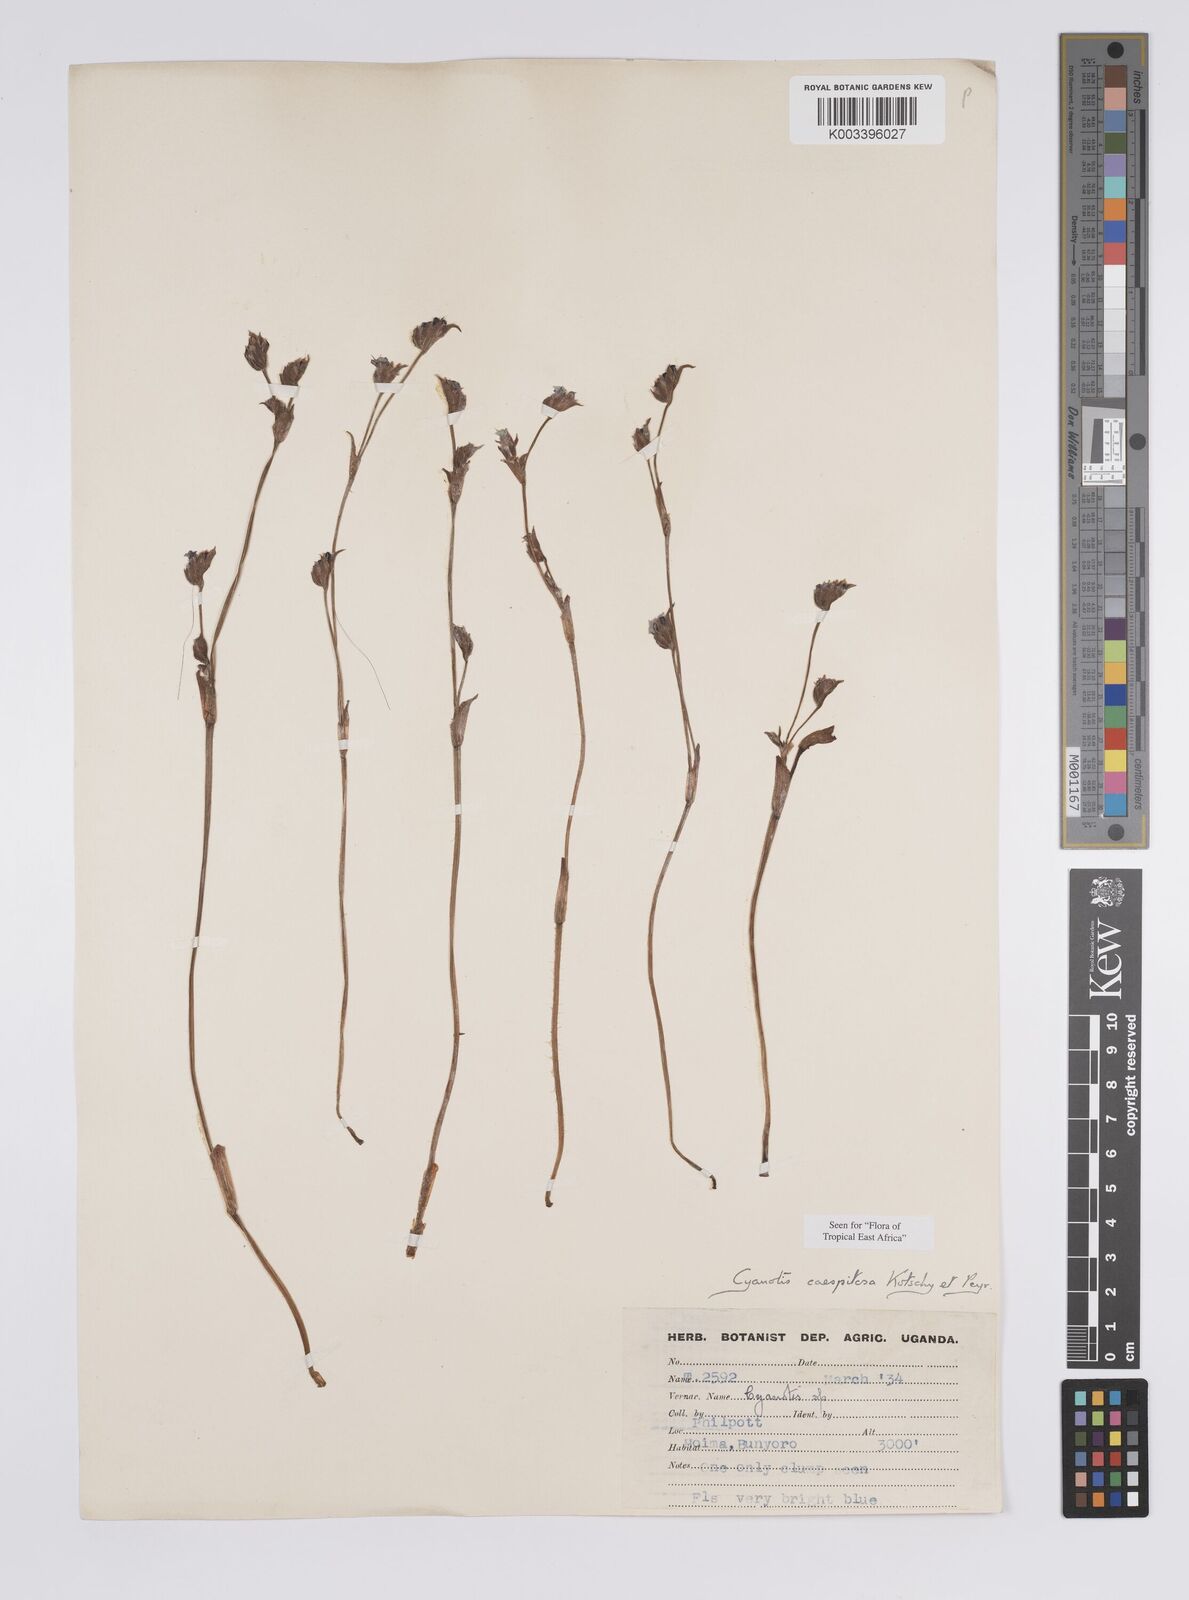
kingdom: Plantae
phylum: Tracheophyta
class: Liliopsida
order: Commelinales
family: Commelinaceae
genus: Cyanotis
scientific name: Cyanotis caespitosa
